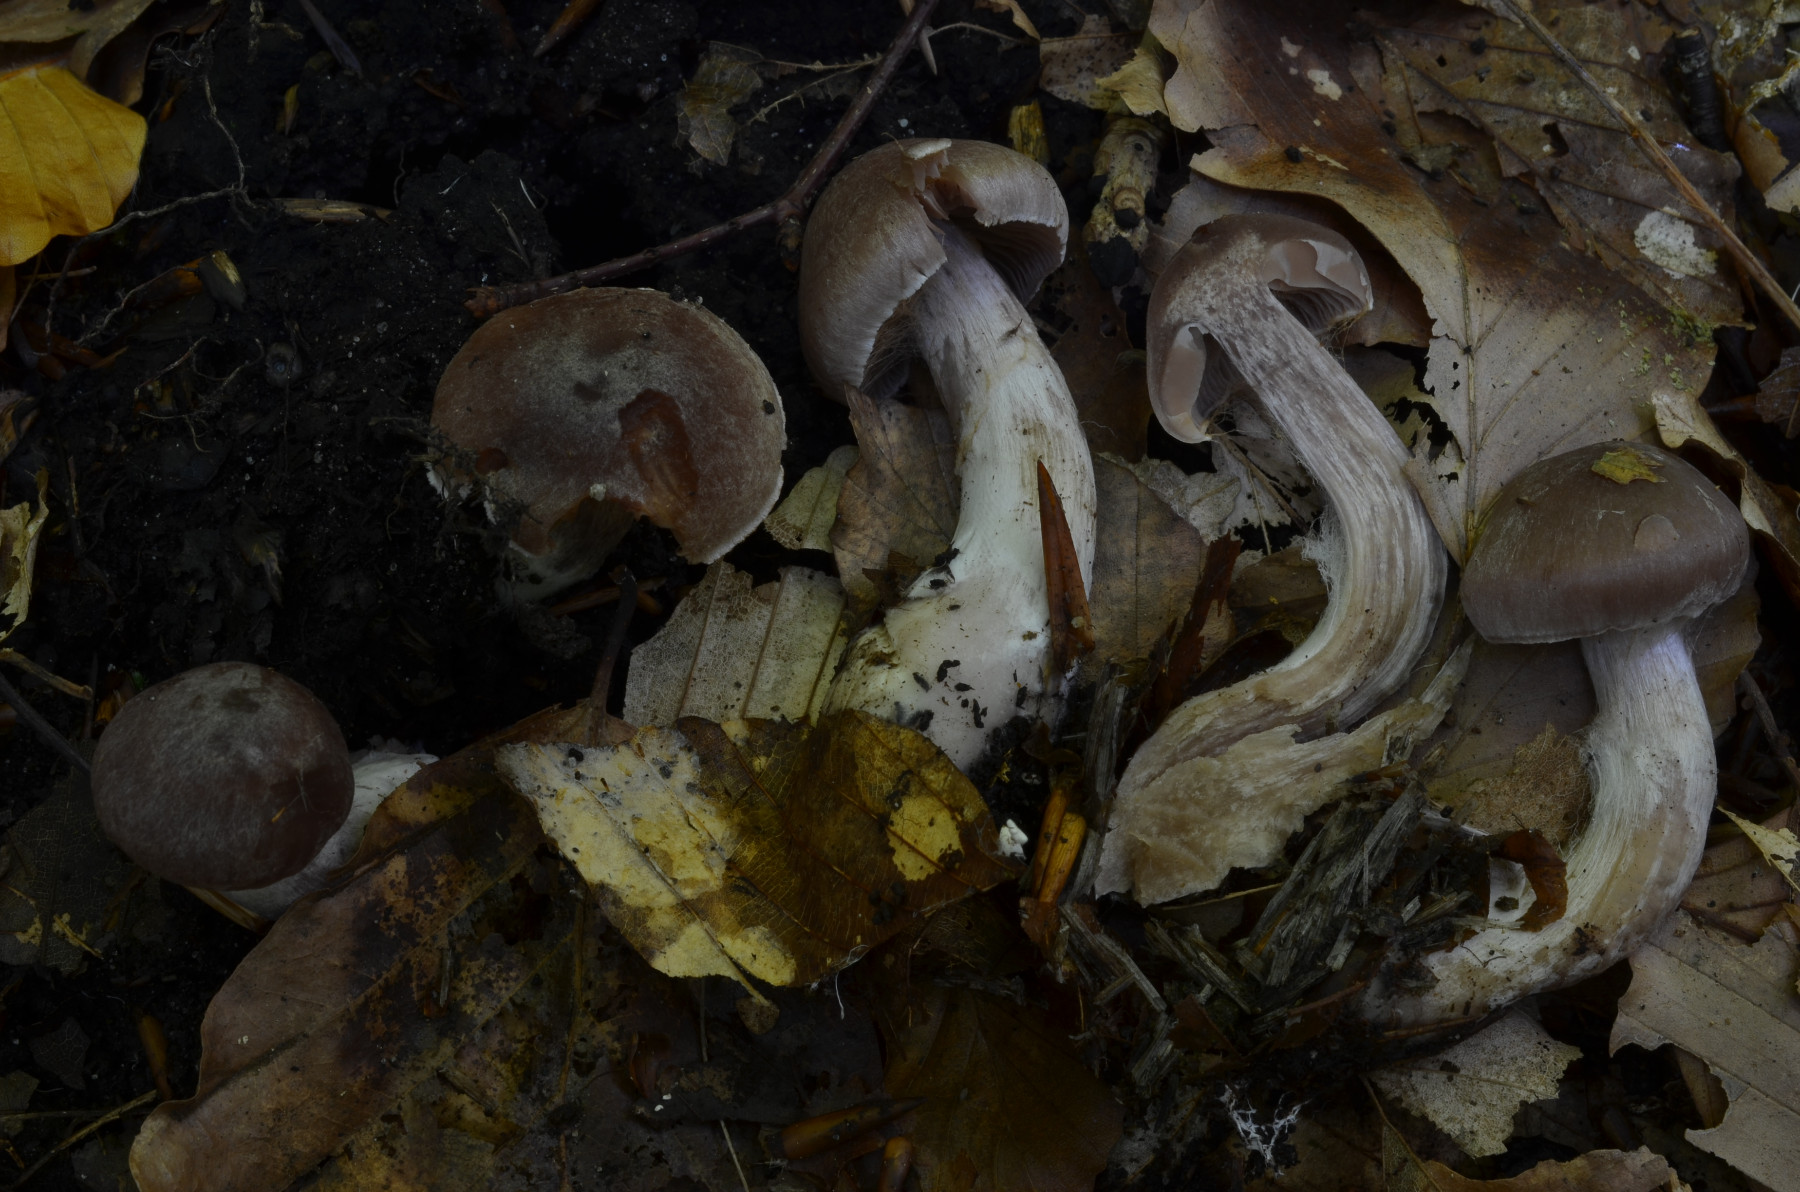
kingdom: Fungi
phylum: Basidiomycota
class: Agaricomycetes
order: Agaricales
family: Cortinariaceae
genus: Cortinarius
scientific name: Cortinarius phaeosmus
